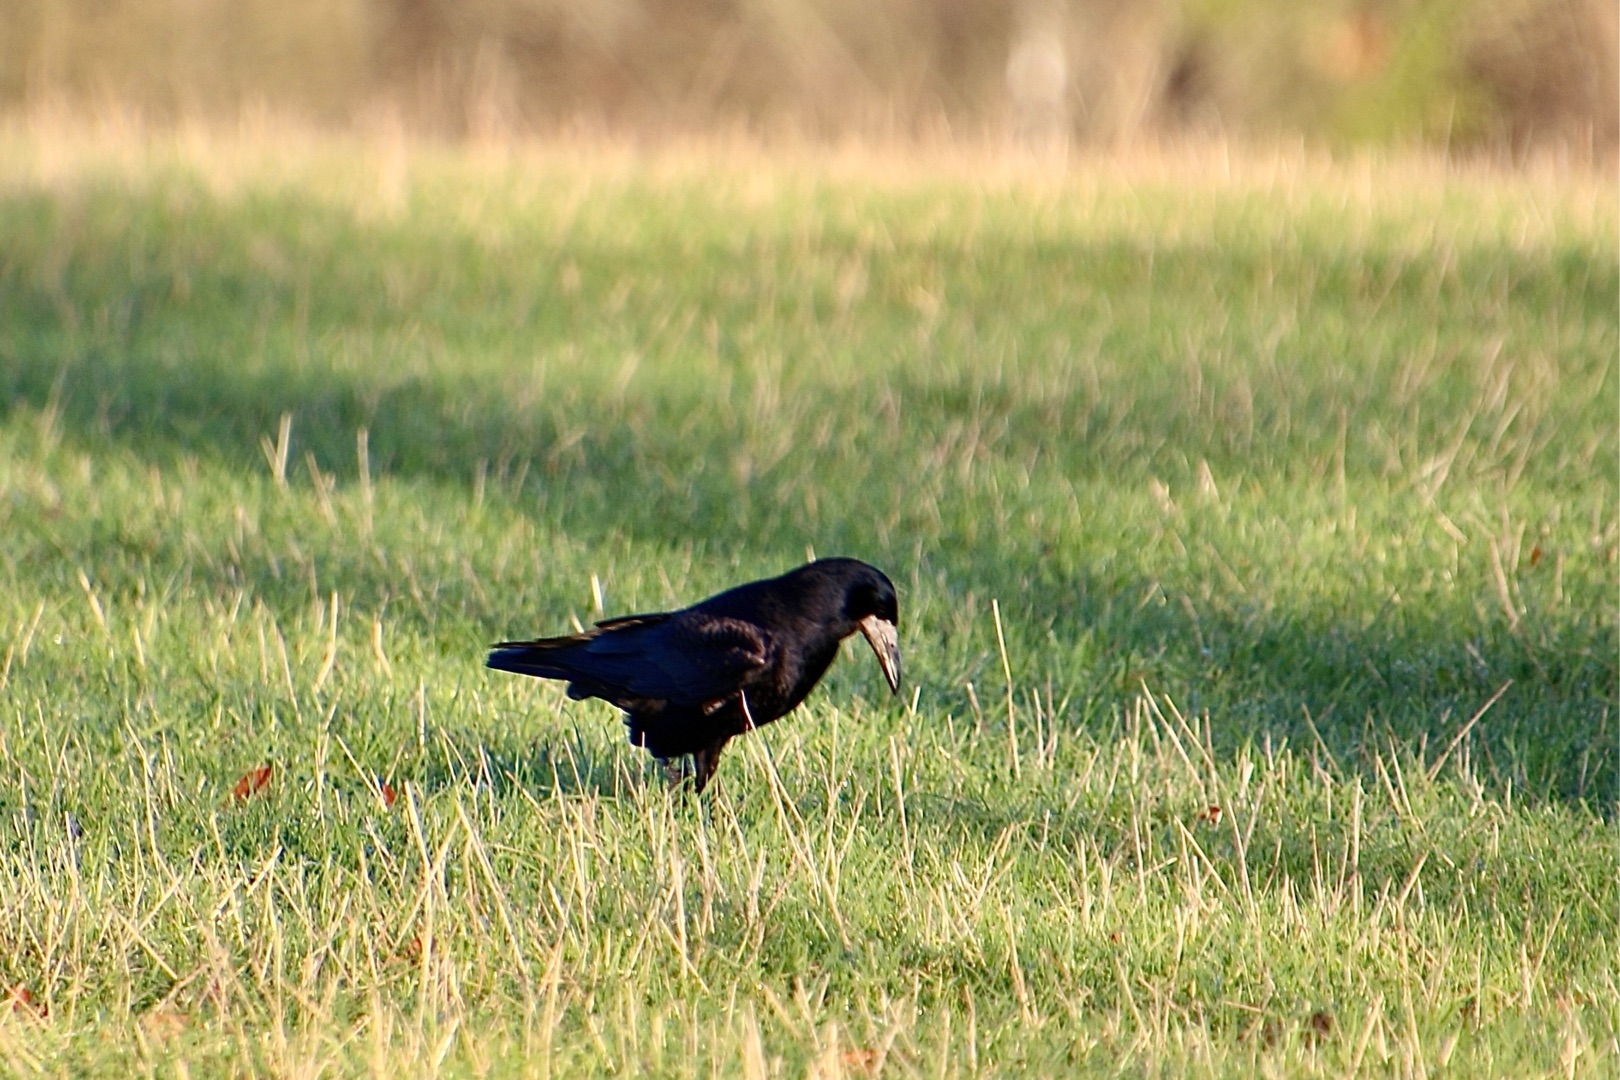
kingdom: Animalia
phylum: Chordata
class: Aves
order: Passeriformes
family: Corvidae
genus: Corvus
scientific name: Corvus frugilegus
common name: Råge
